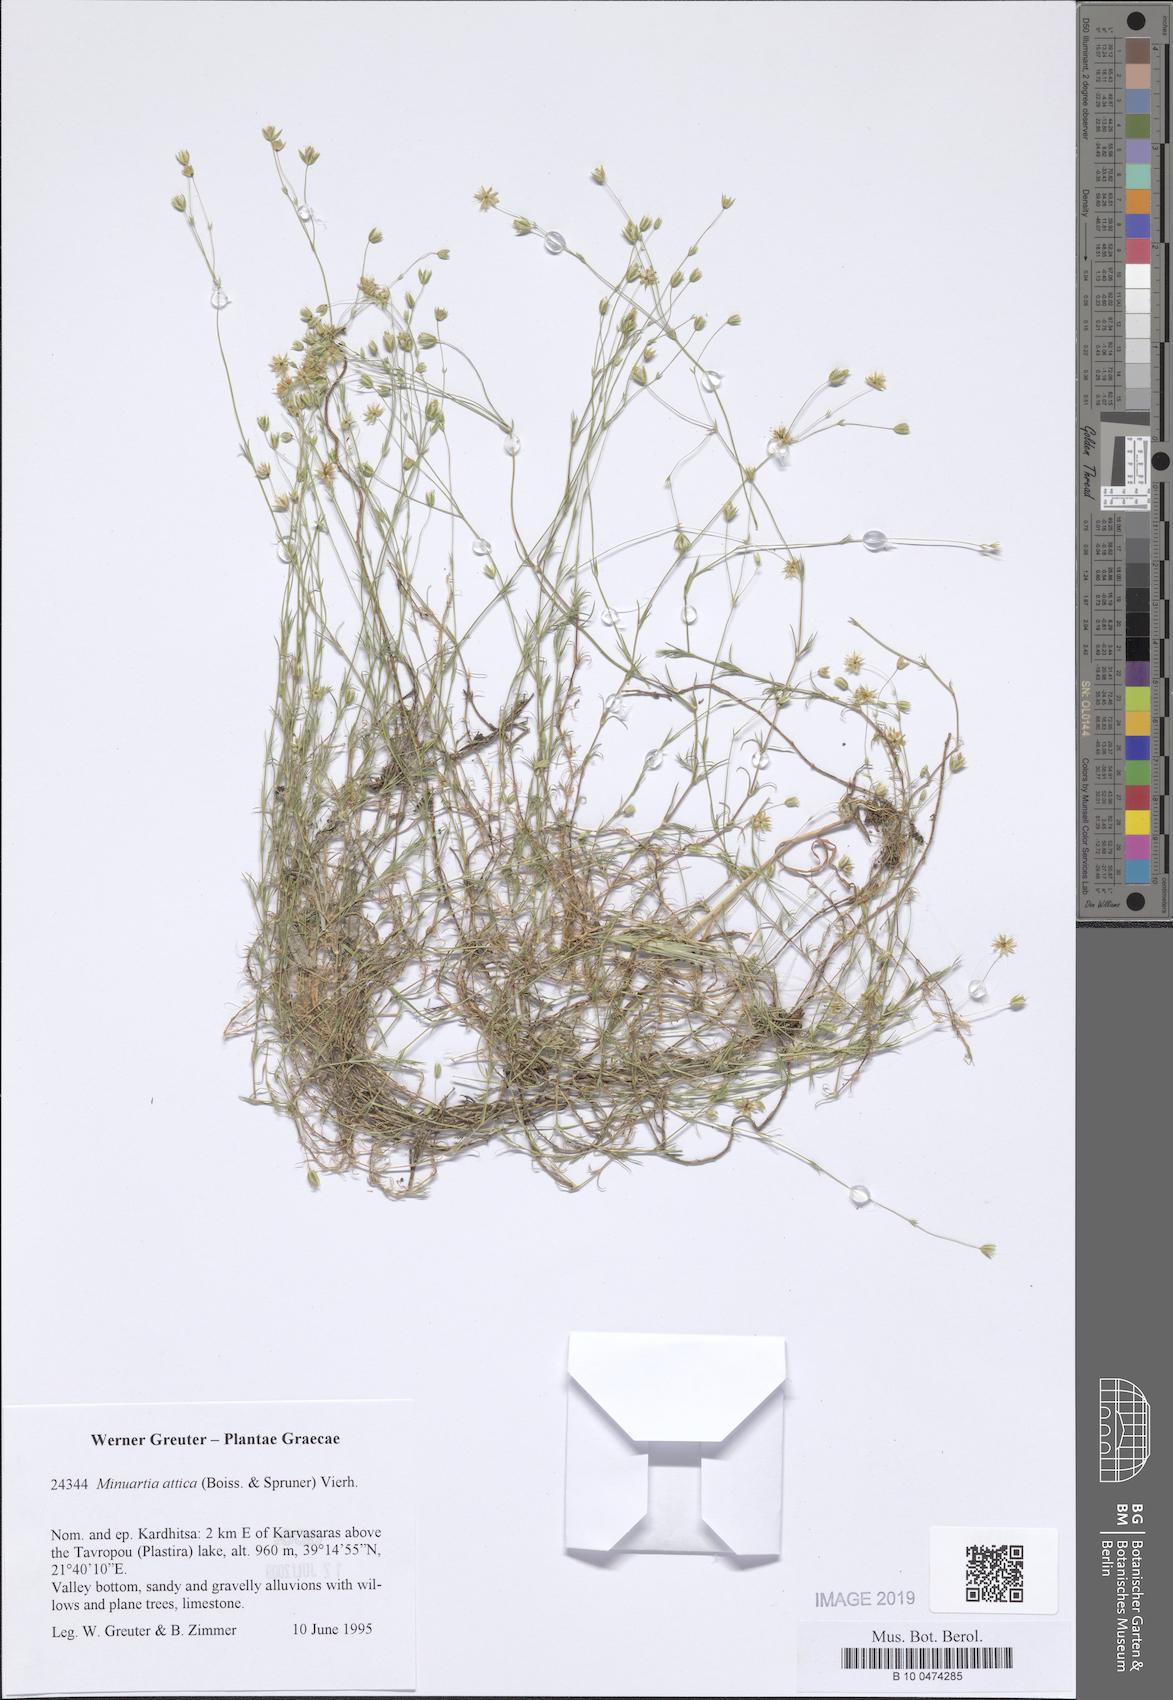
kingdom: Plantae
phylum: Tracheophyta
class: Magnoliopsida
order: Caryophyllales
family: Caryophyllaceae
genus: Sabulina
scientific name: Sabulina attica
